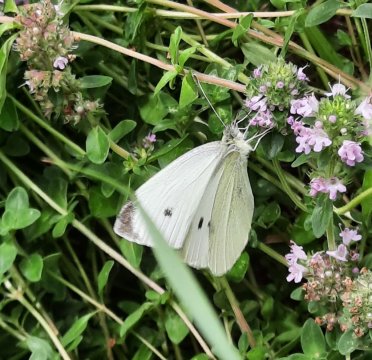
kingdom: Animalia
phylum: Arthropoda
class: Insecta
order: Lepidoptera
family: Pieridae
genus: Pieris
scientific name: Pieris rapae
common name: Cabbage White
